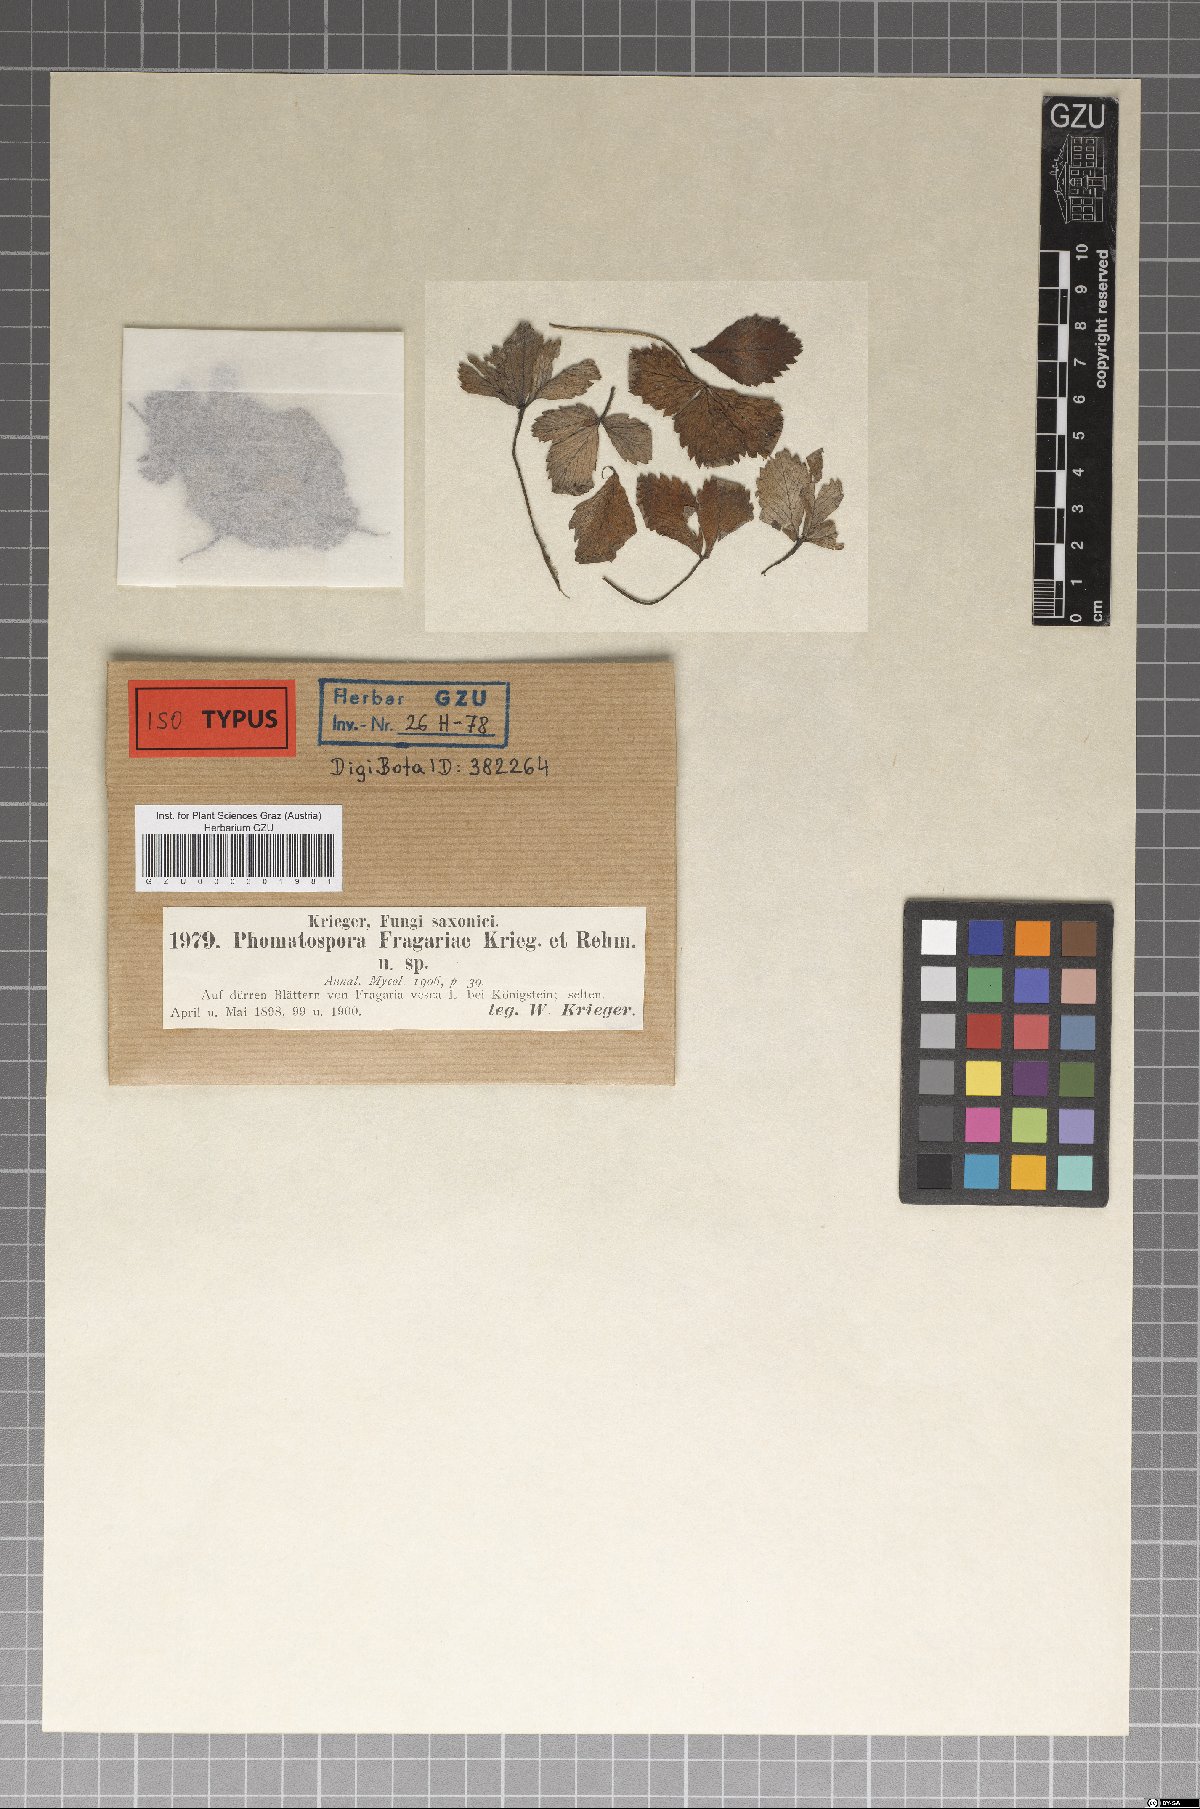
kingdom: Fungi
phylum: Ascomycota
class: Sordariomycetes
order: Xylariales
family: Xylariaceae
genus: Plectosphaera
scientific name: Plectosphaera fragariae
